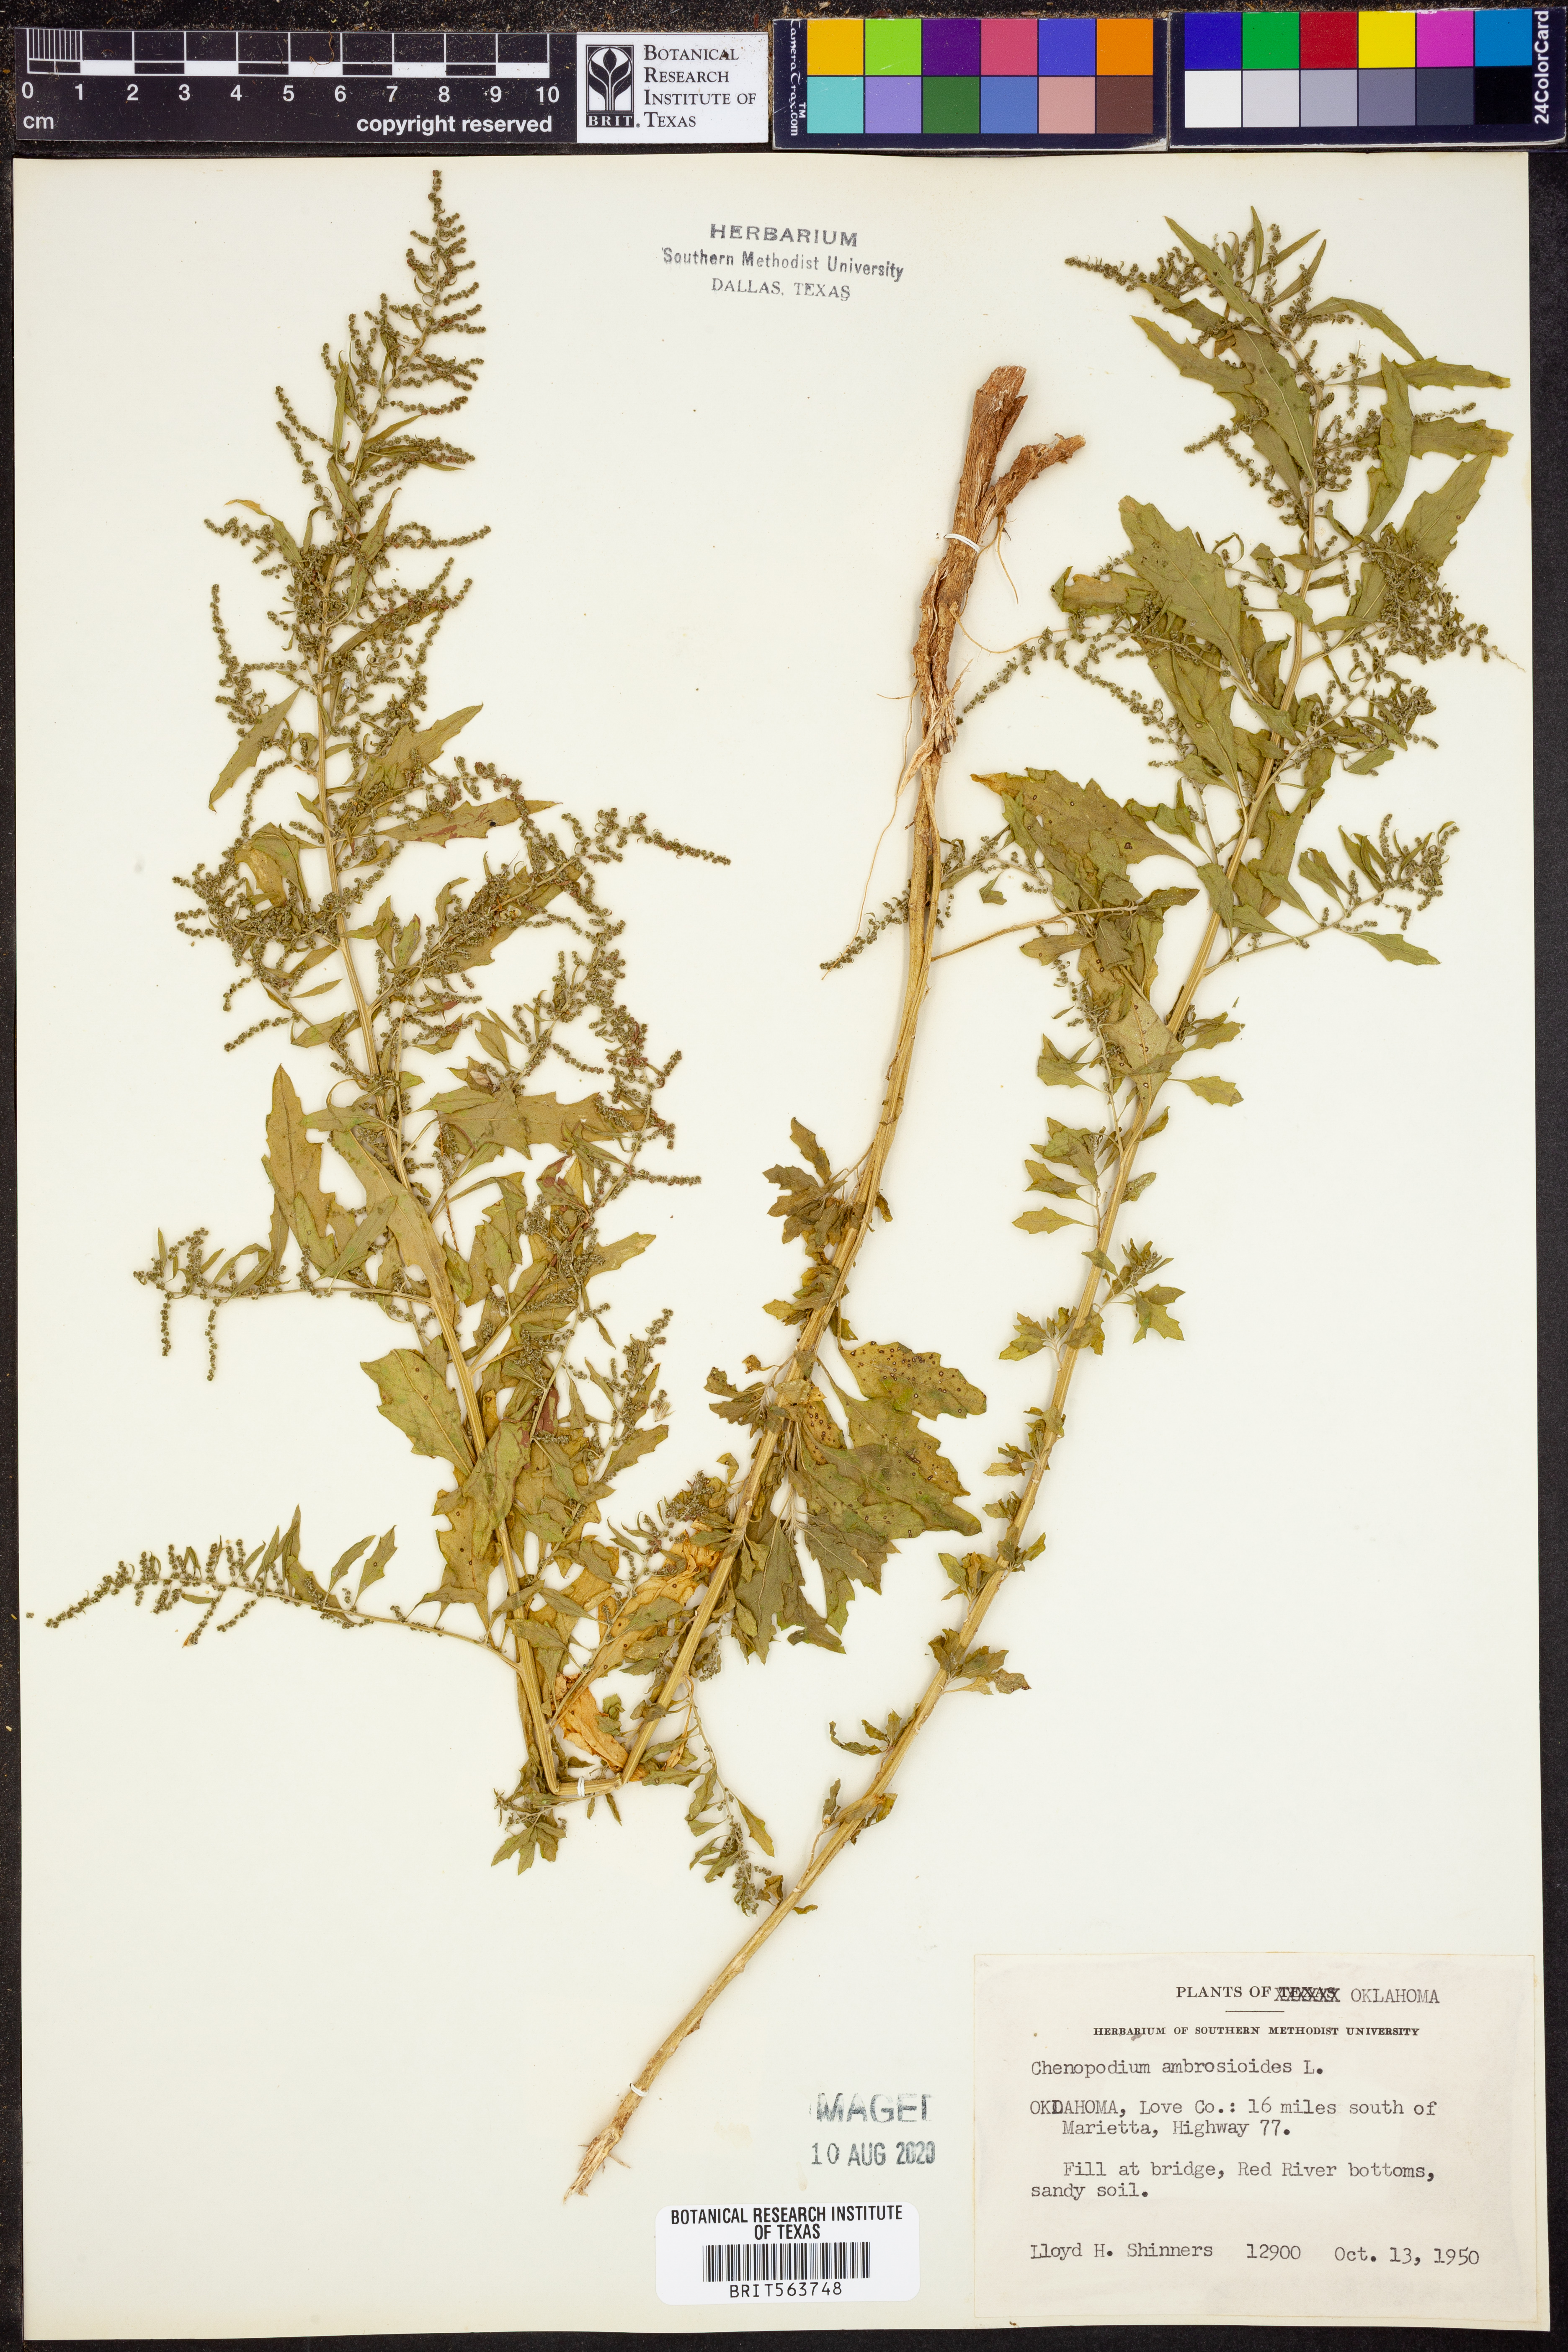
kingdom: Plantae
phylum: Tracheophyta
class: Magnoliopsida
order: Caryophyllales
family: Amaranthaceae
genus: Dysphania
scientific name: Dysphania ambrosioides
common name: Wormseed
